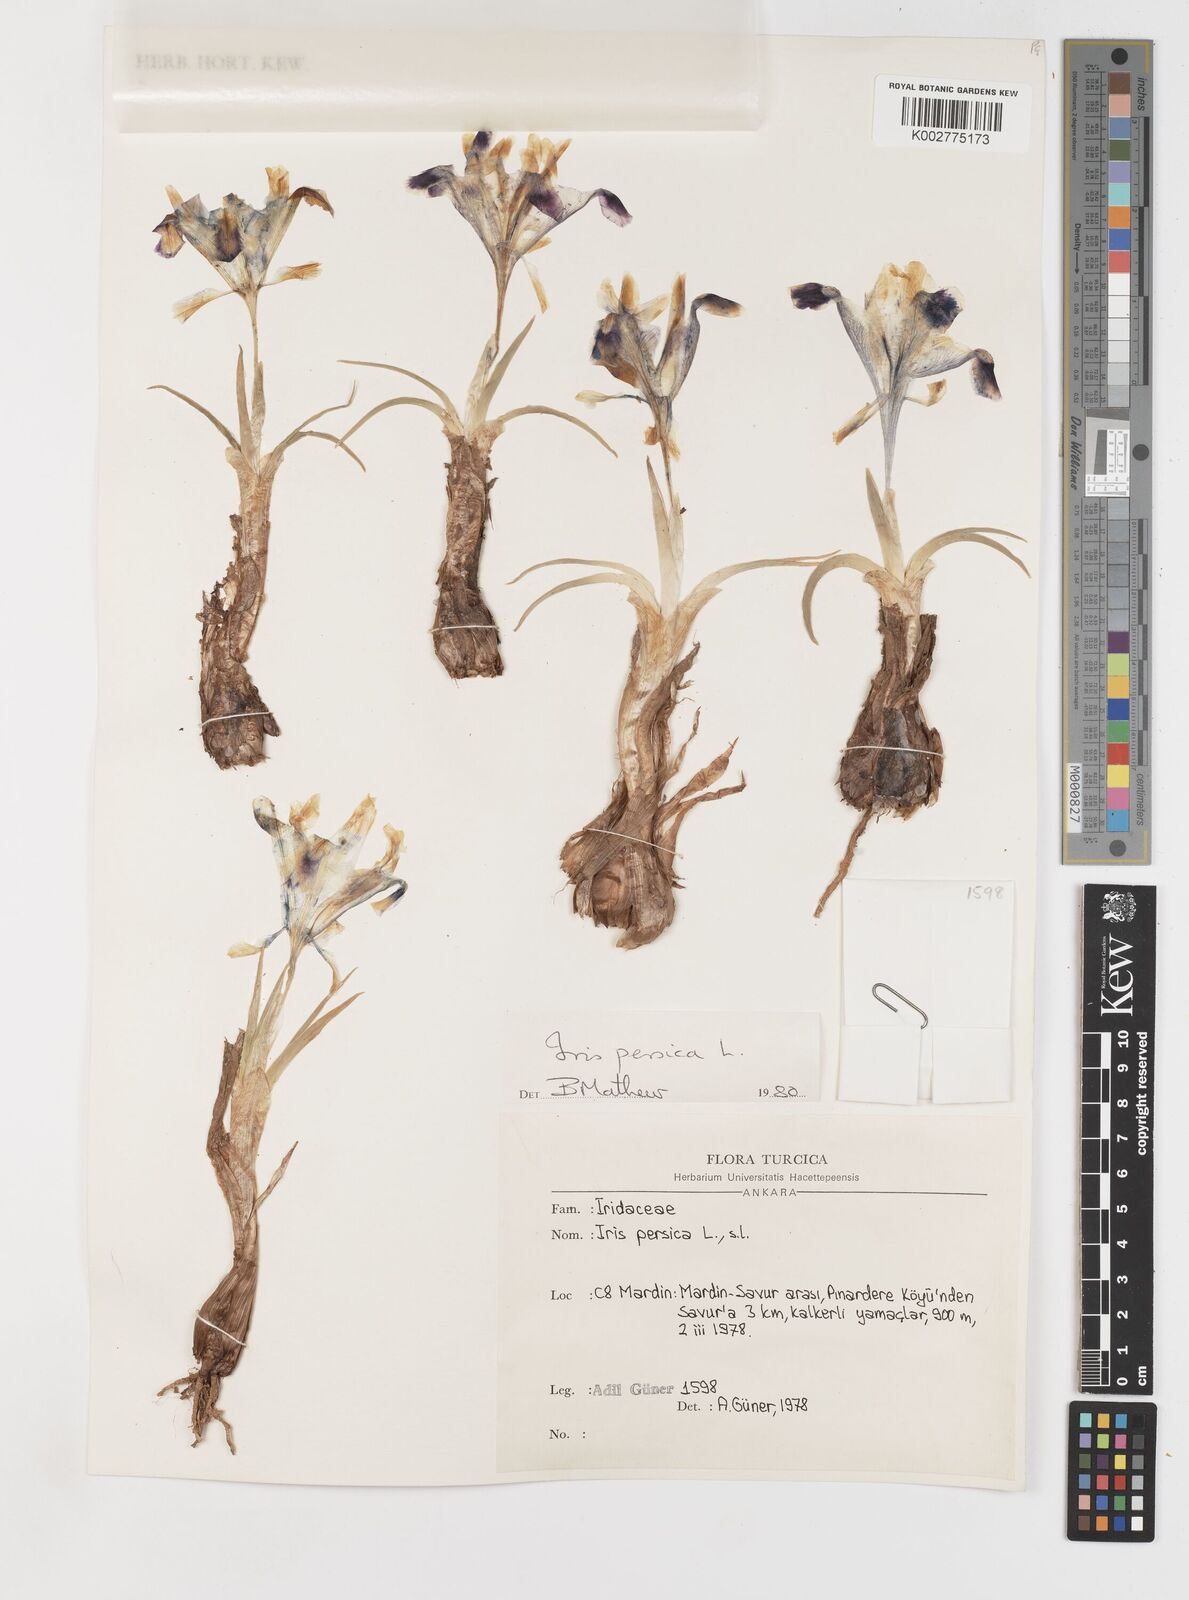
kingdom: Plantae
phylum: Tracheophyta
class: Liliopsida
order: Asparagales
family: Iridaceae
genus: Iris
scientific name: Iris persica
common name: Persian iris
